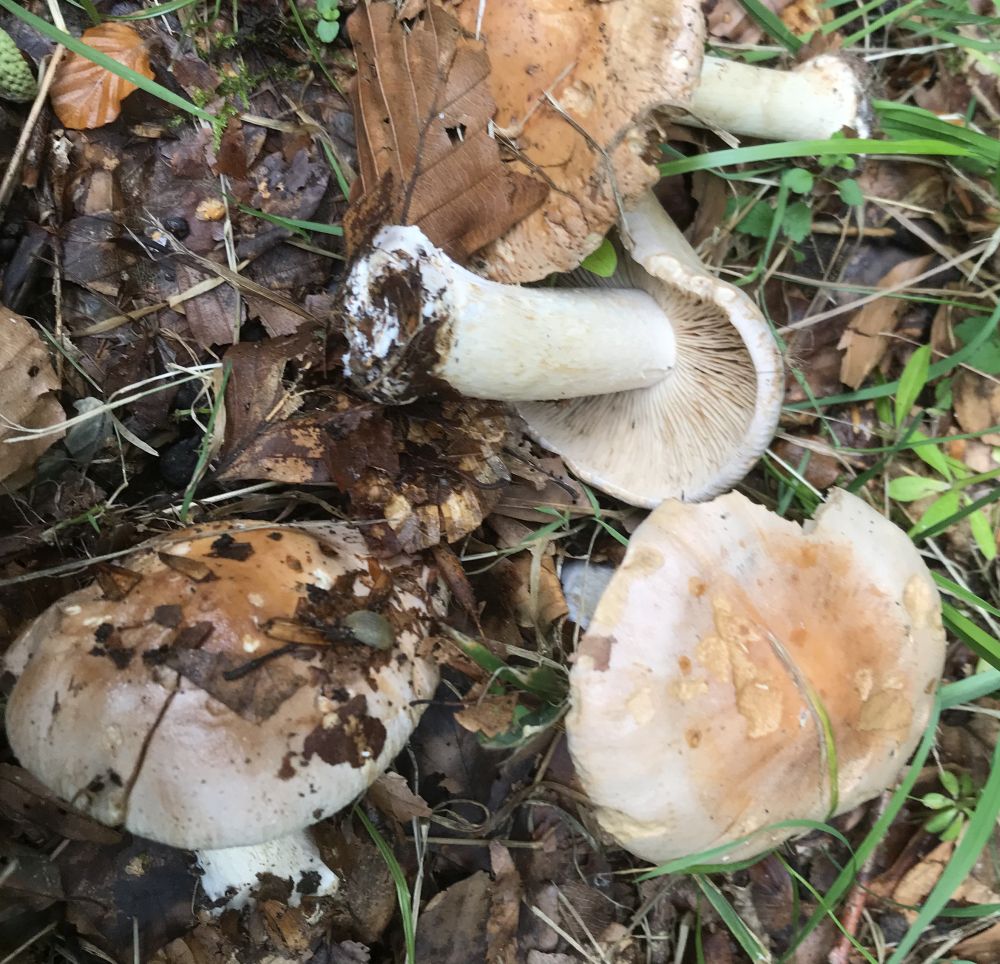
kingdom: Fungi
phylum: Basidiomycota
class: Agaricomycetes
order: Agaricales
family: Hymenogastraceae
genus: Hebeloma
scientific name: Hebeloma sinapizans
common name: ræddike-tåreblad
